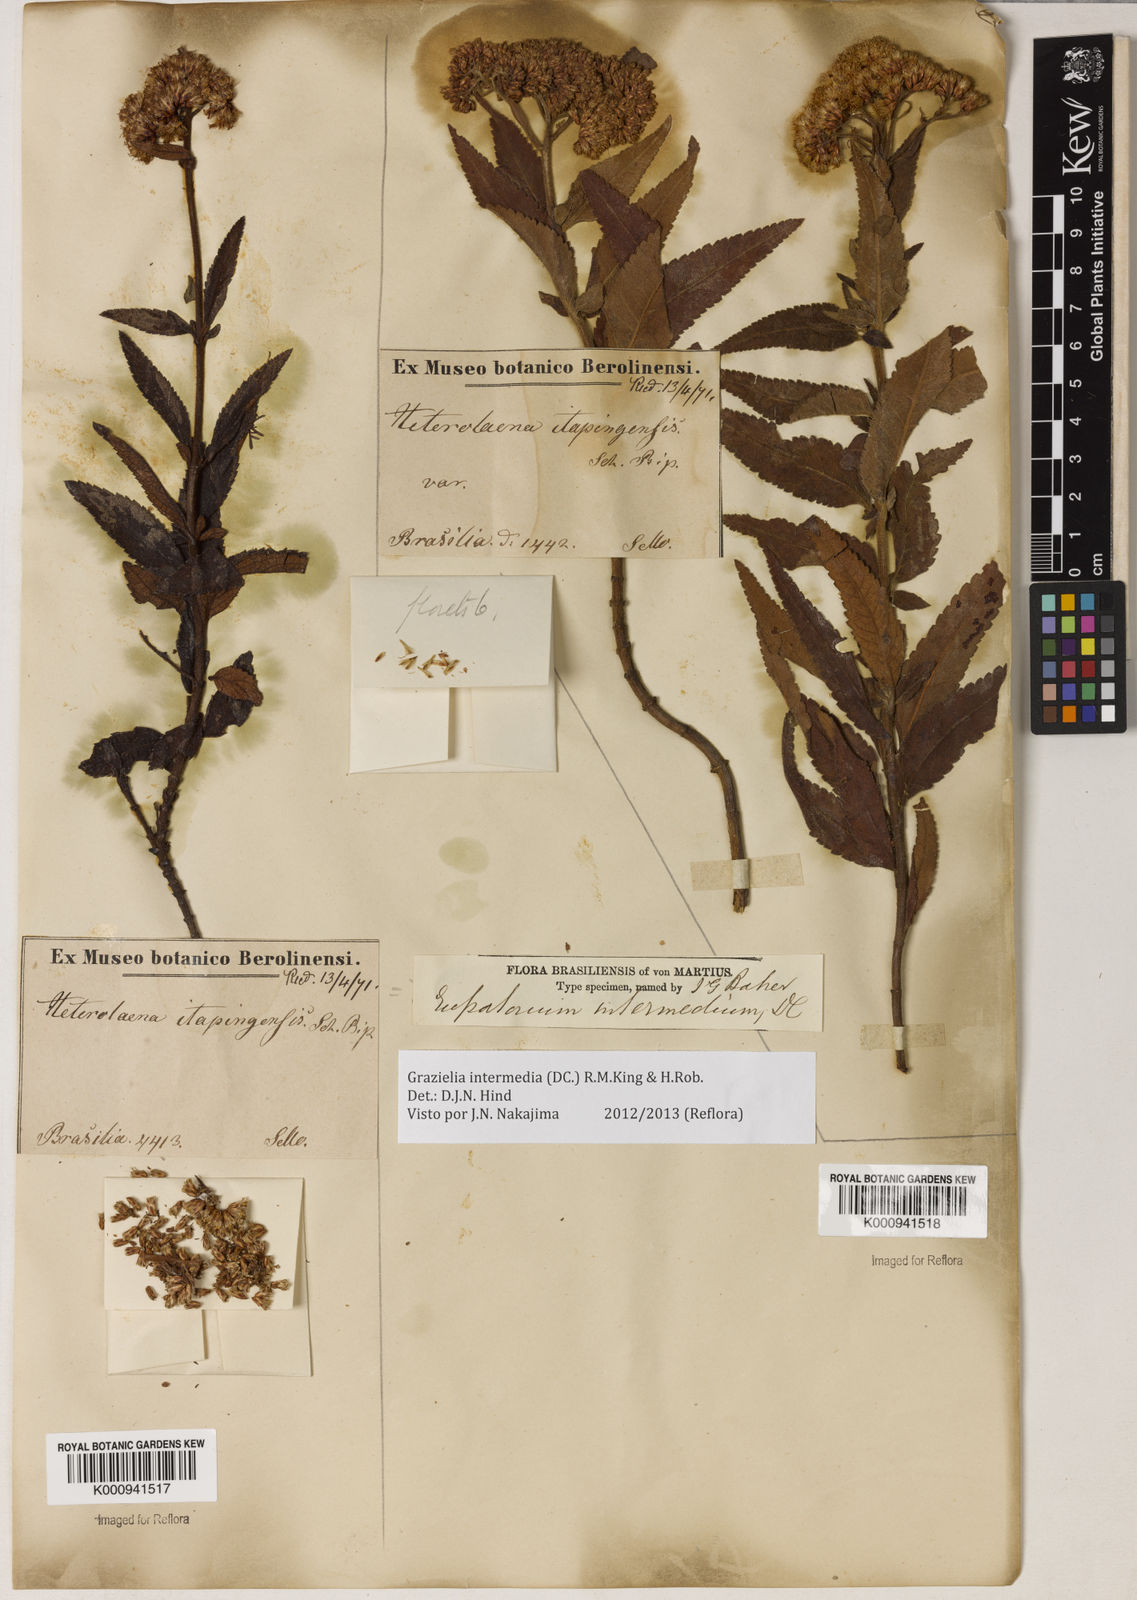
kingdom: Plantae
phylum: Tracheophyta
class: Magnoliopsida
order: Asterales
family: Asteraceae
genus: Grazielia
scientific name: Grazielia intermedia
